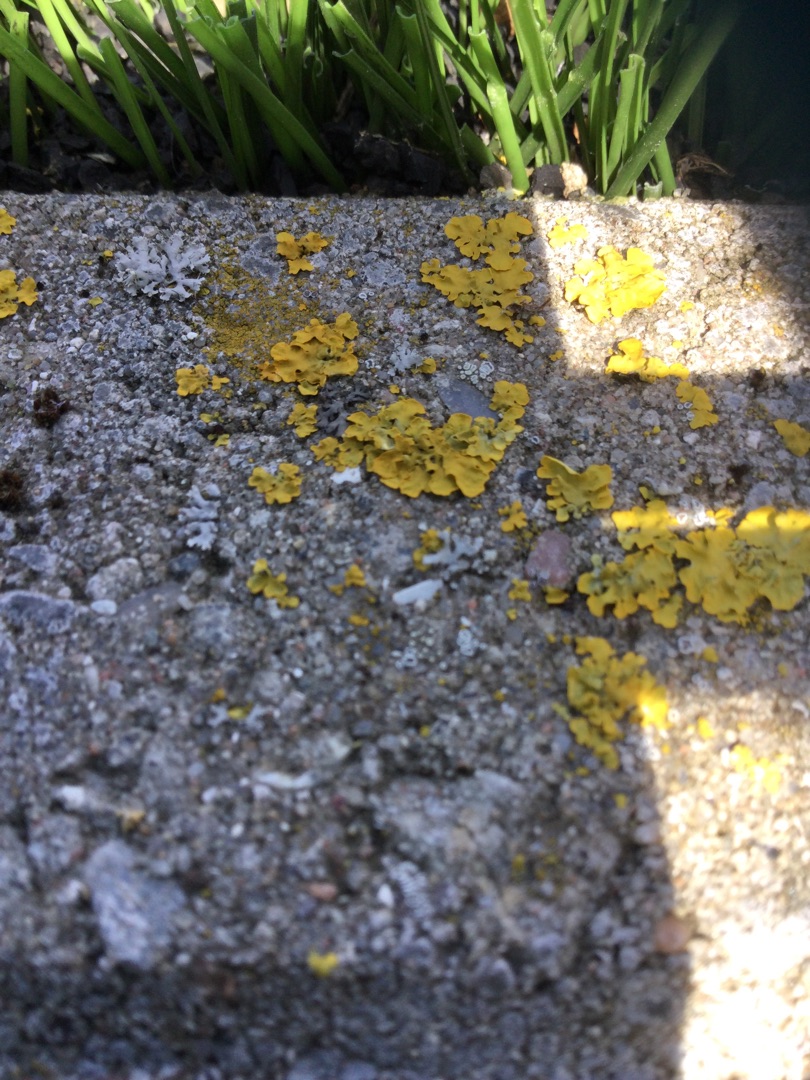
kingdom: Fungi
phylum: Ascomycota
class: Lecanoromycetes
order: Teloschistales
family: Teloschistaceae
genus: Xanthoria
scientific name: Xanthoria parietina
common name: Almindelig væggelav
